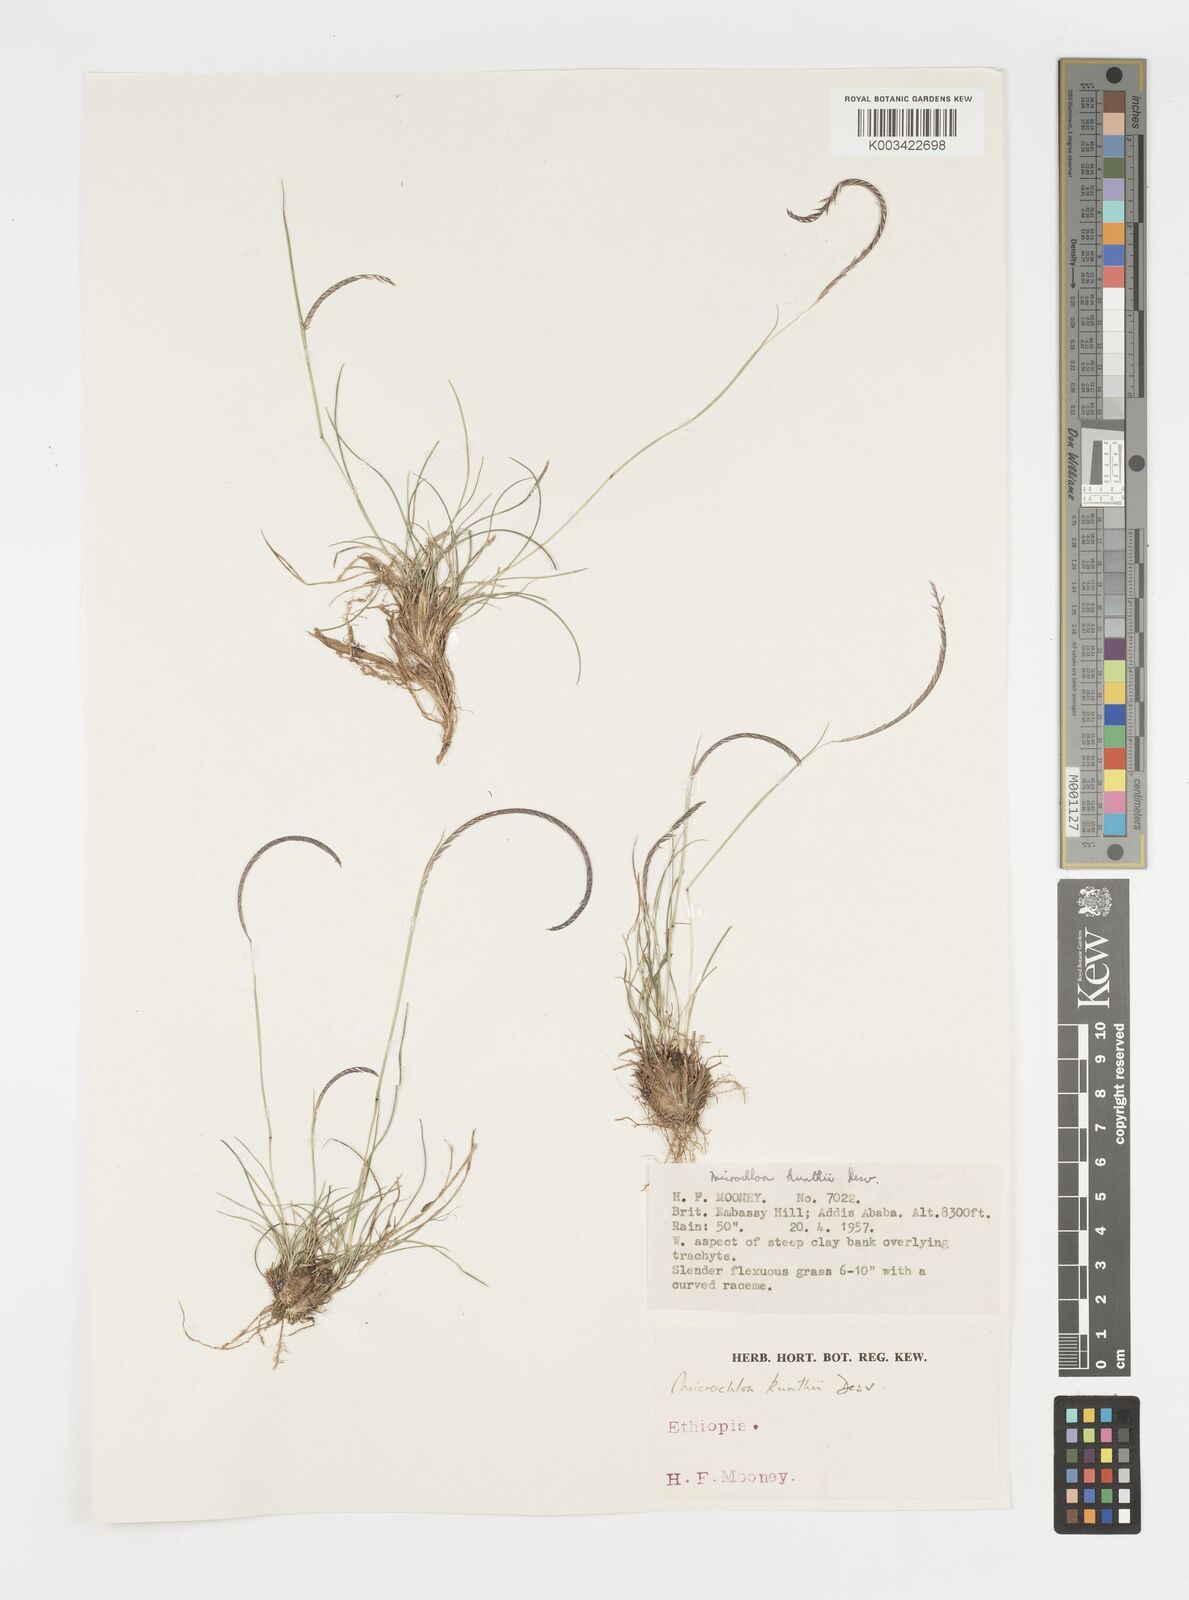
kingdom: Plantae
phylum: Tracheophyta
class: Liliopsida
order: Poales
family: Poaceae
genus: Microchloa
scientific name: Microchloa kunthii
